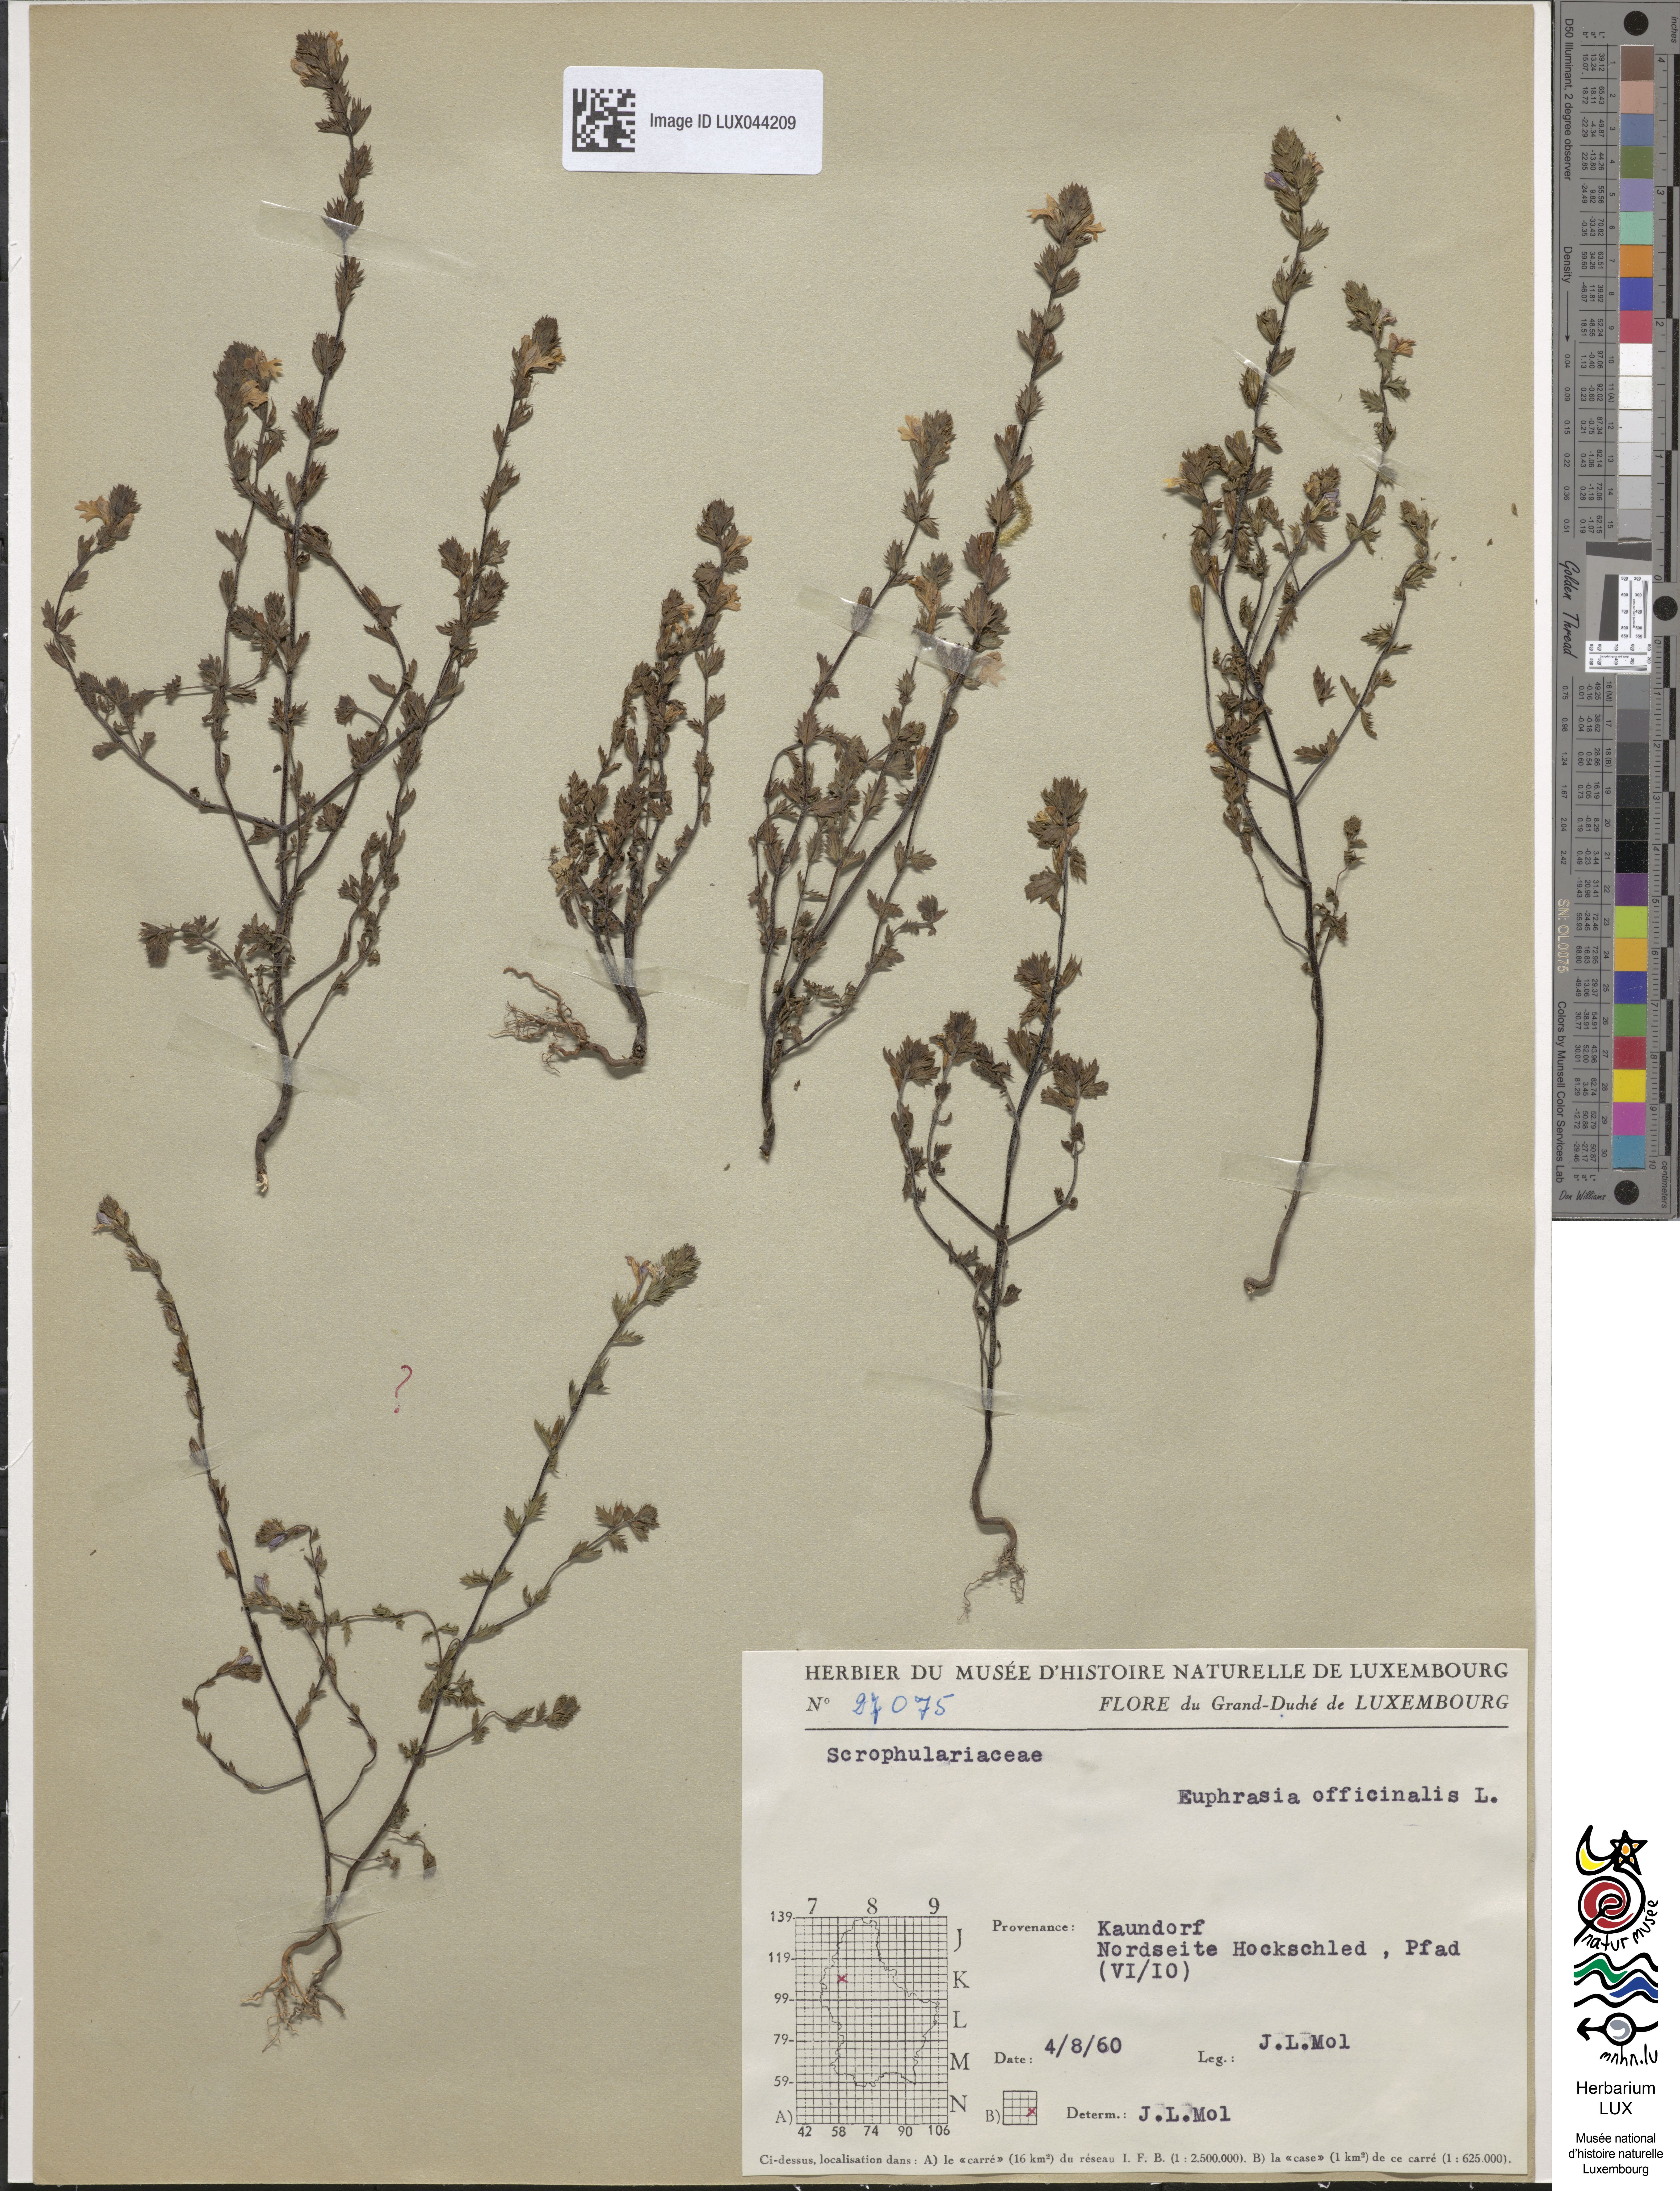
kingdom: Plantae
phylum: Tracheophyta
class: Magnoliopsida
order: Lamiales
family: Orobanchaceae
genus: Euphrasia
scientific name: Euphrasia stricta
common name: Drug eyebright
